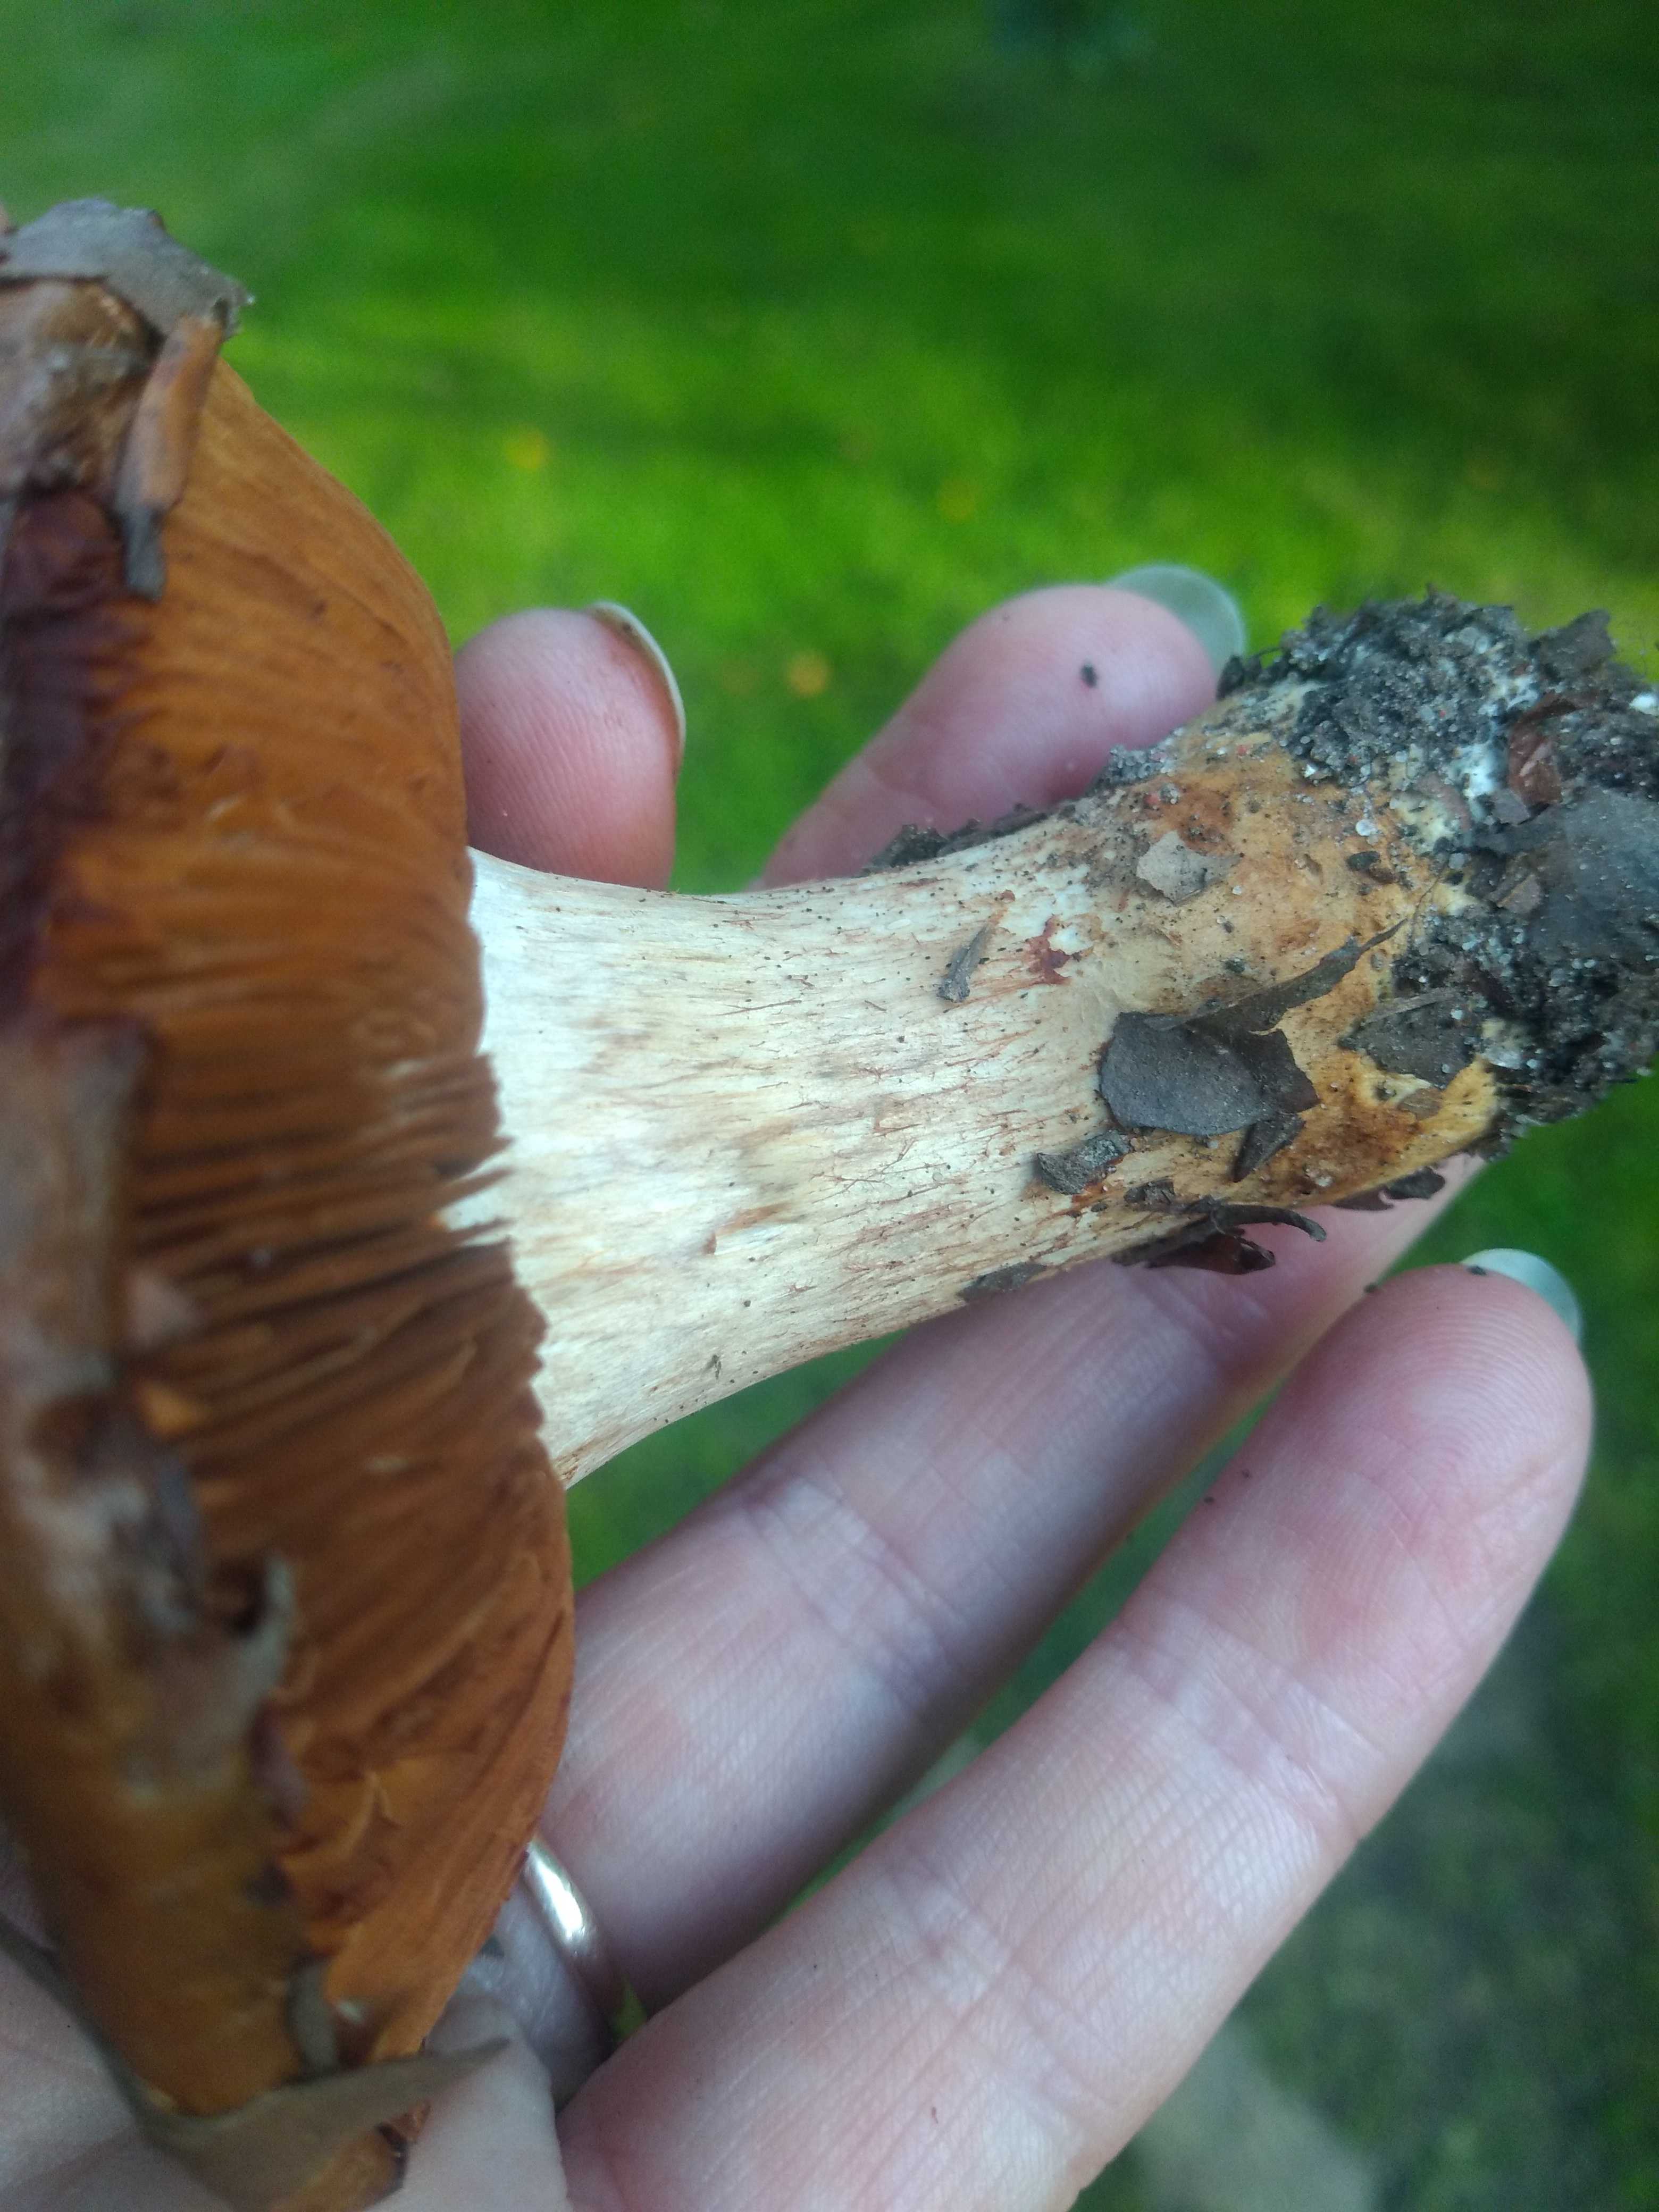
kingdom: Fungi
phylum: Basidiomycota
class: Agaricomycetes
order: Agaricales
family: Cortinariaceae
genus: Cortinarius
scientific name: Cortinarius
